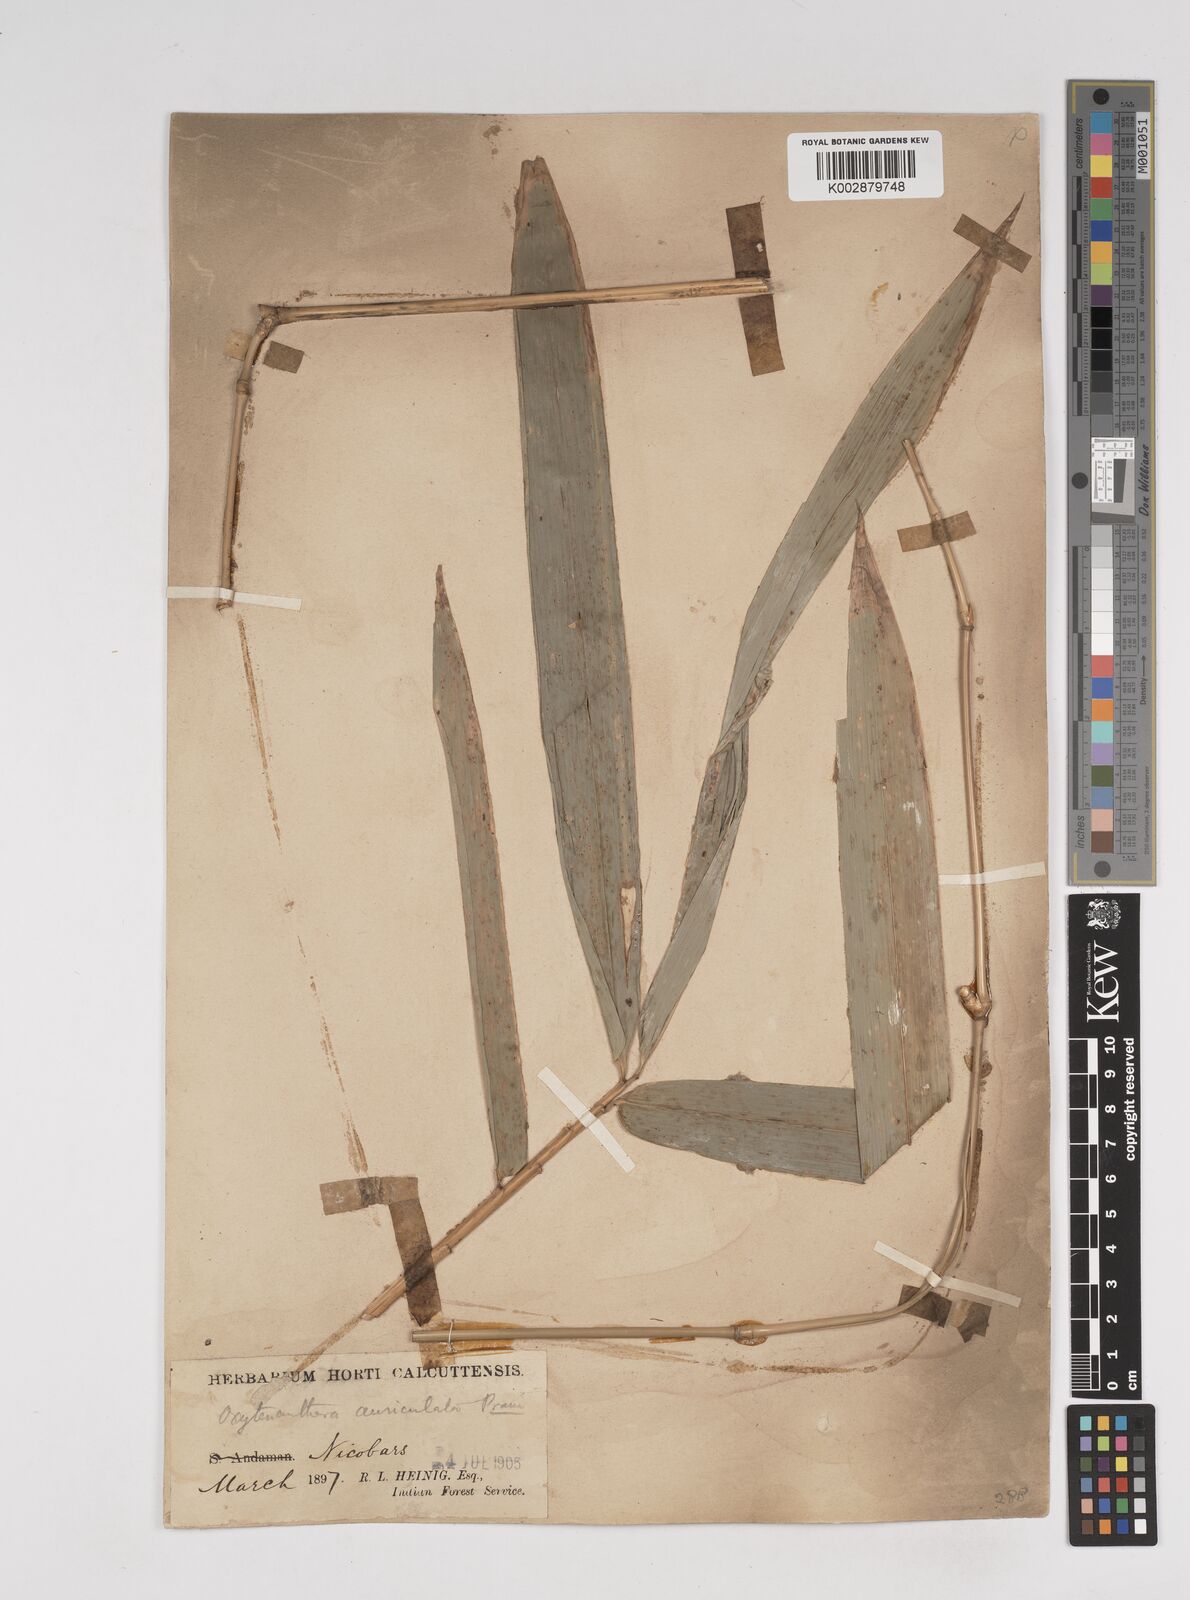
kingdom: Plantae
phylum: Tracheophyta
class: Liliopsida
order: Poales
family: Poaceae
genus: Gigantochloa
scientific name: Gigantochloa albociliata
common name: White-fringe gigantochloa
